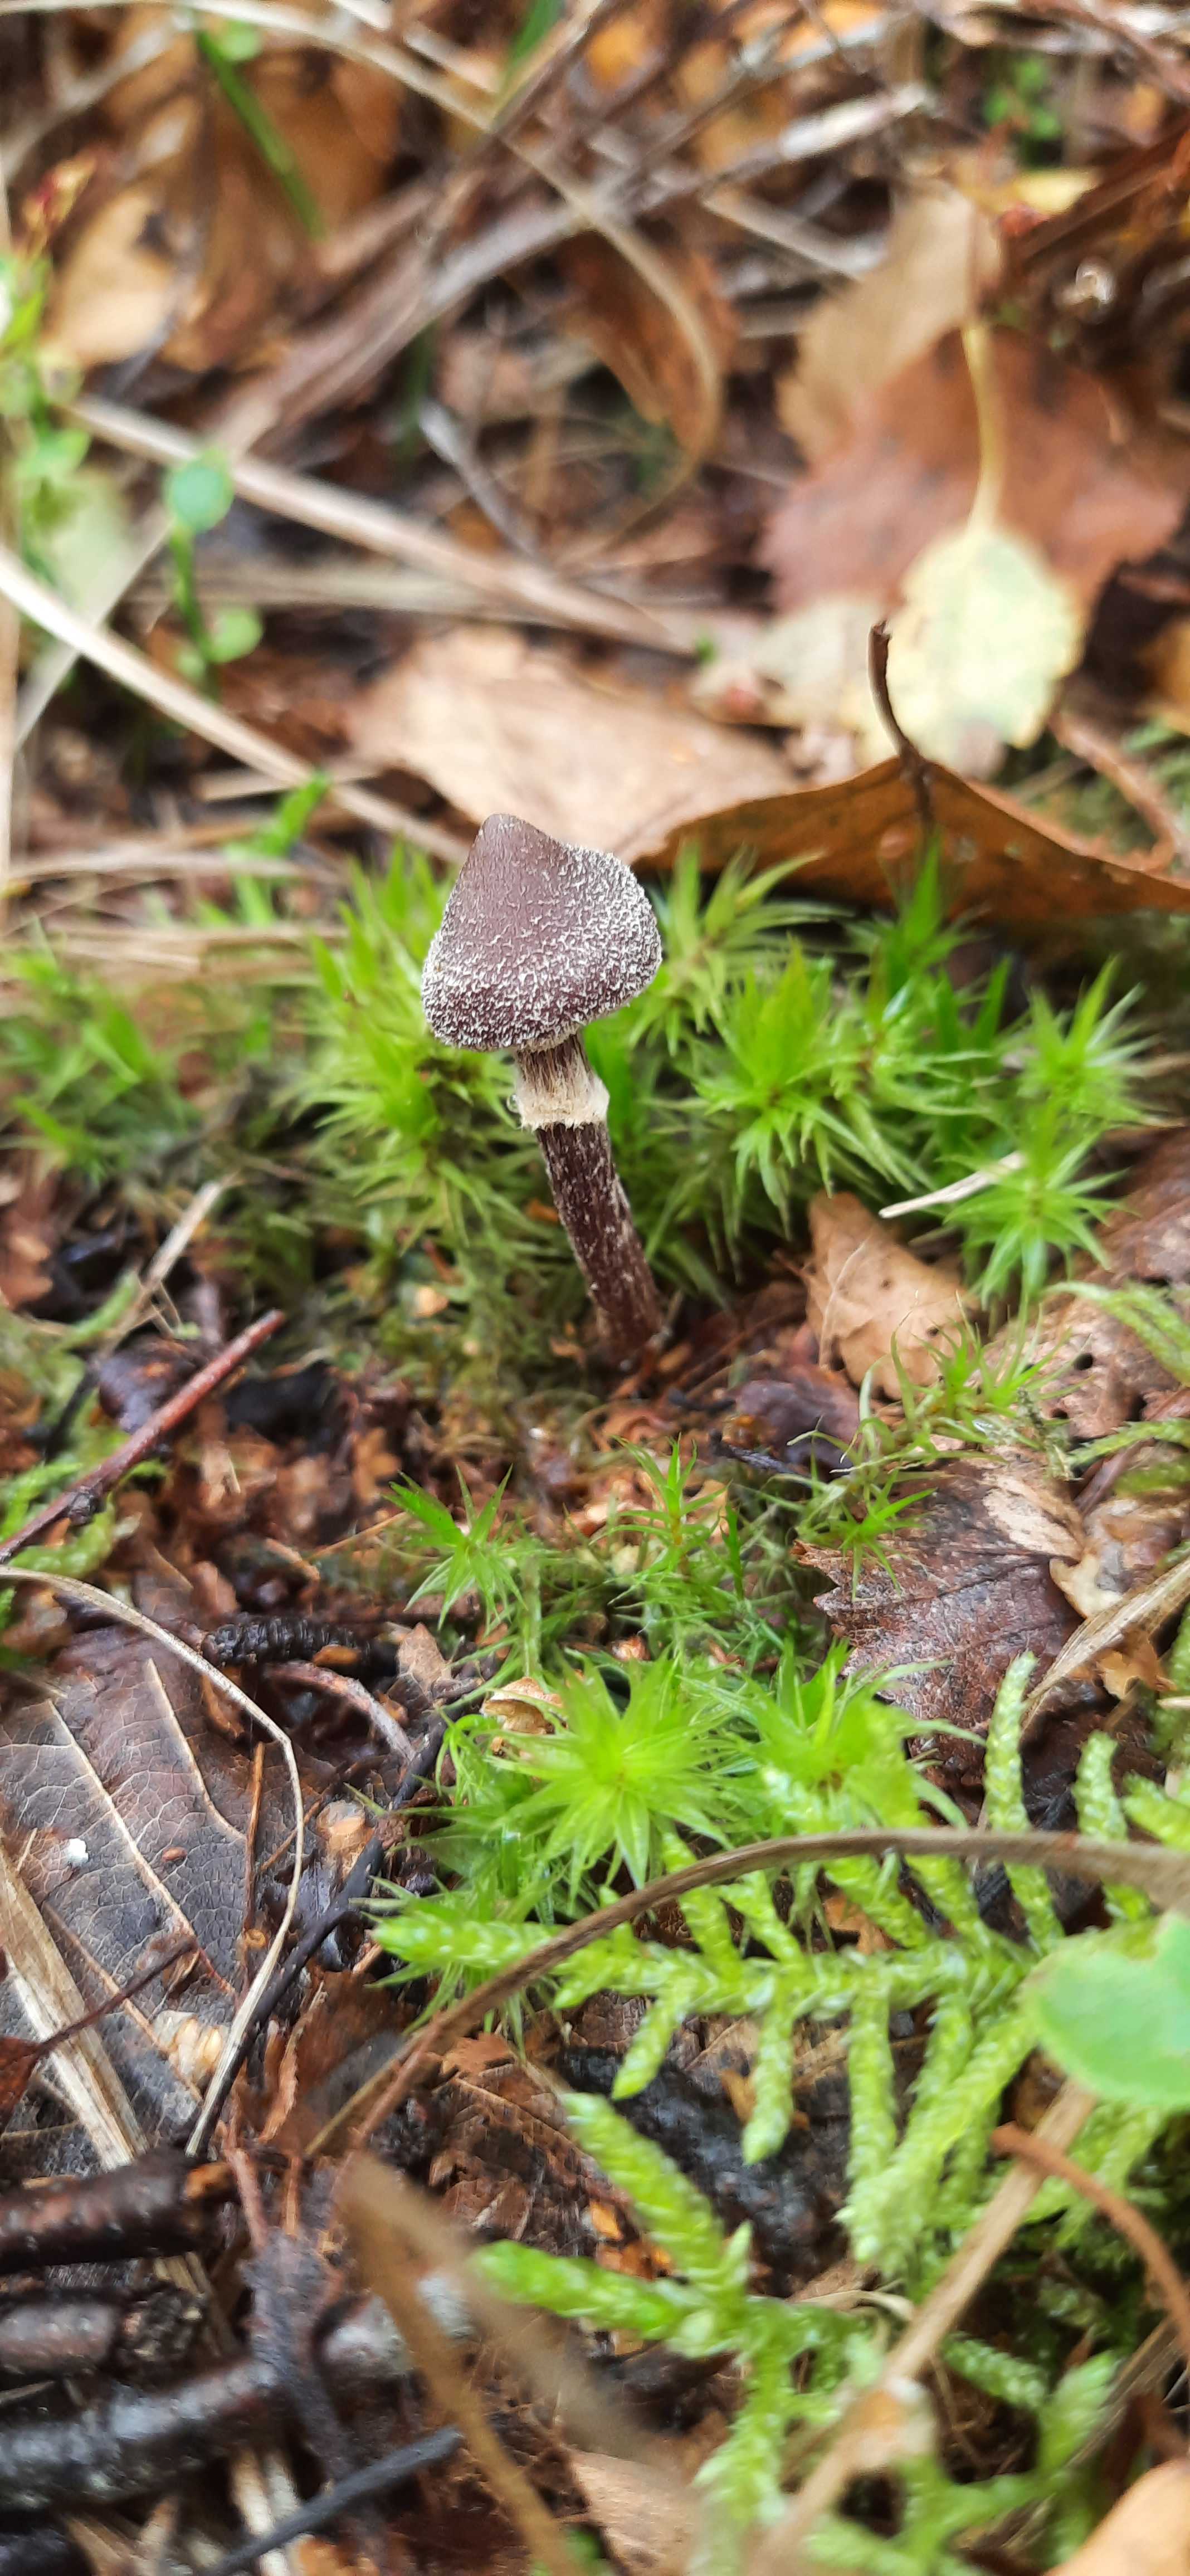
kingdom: Fungi
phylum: Basidiomycota
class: Agaricomycetes
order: Agaricales
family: Cortinariaceae
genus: Cortinarius
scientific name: Cortinarius flexipes
